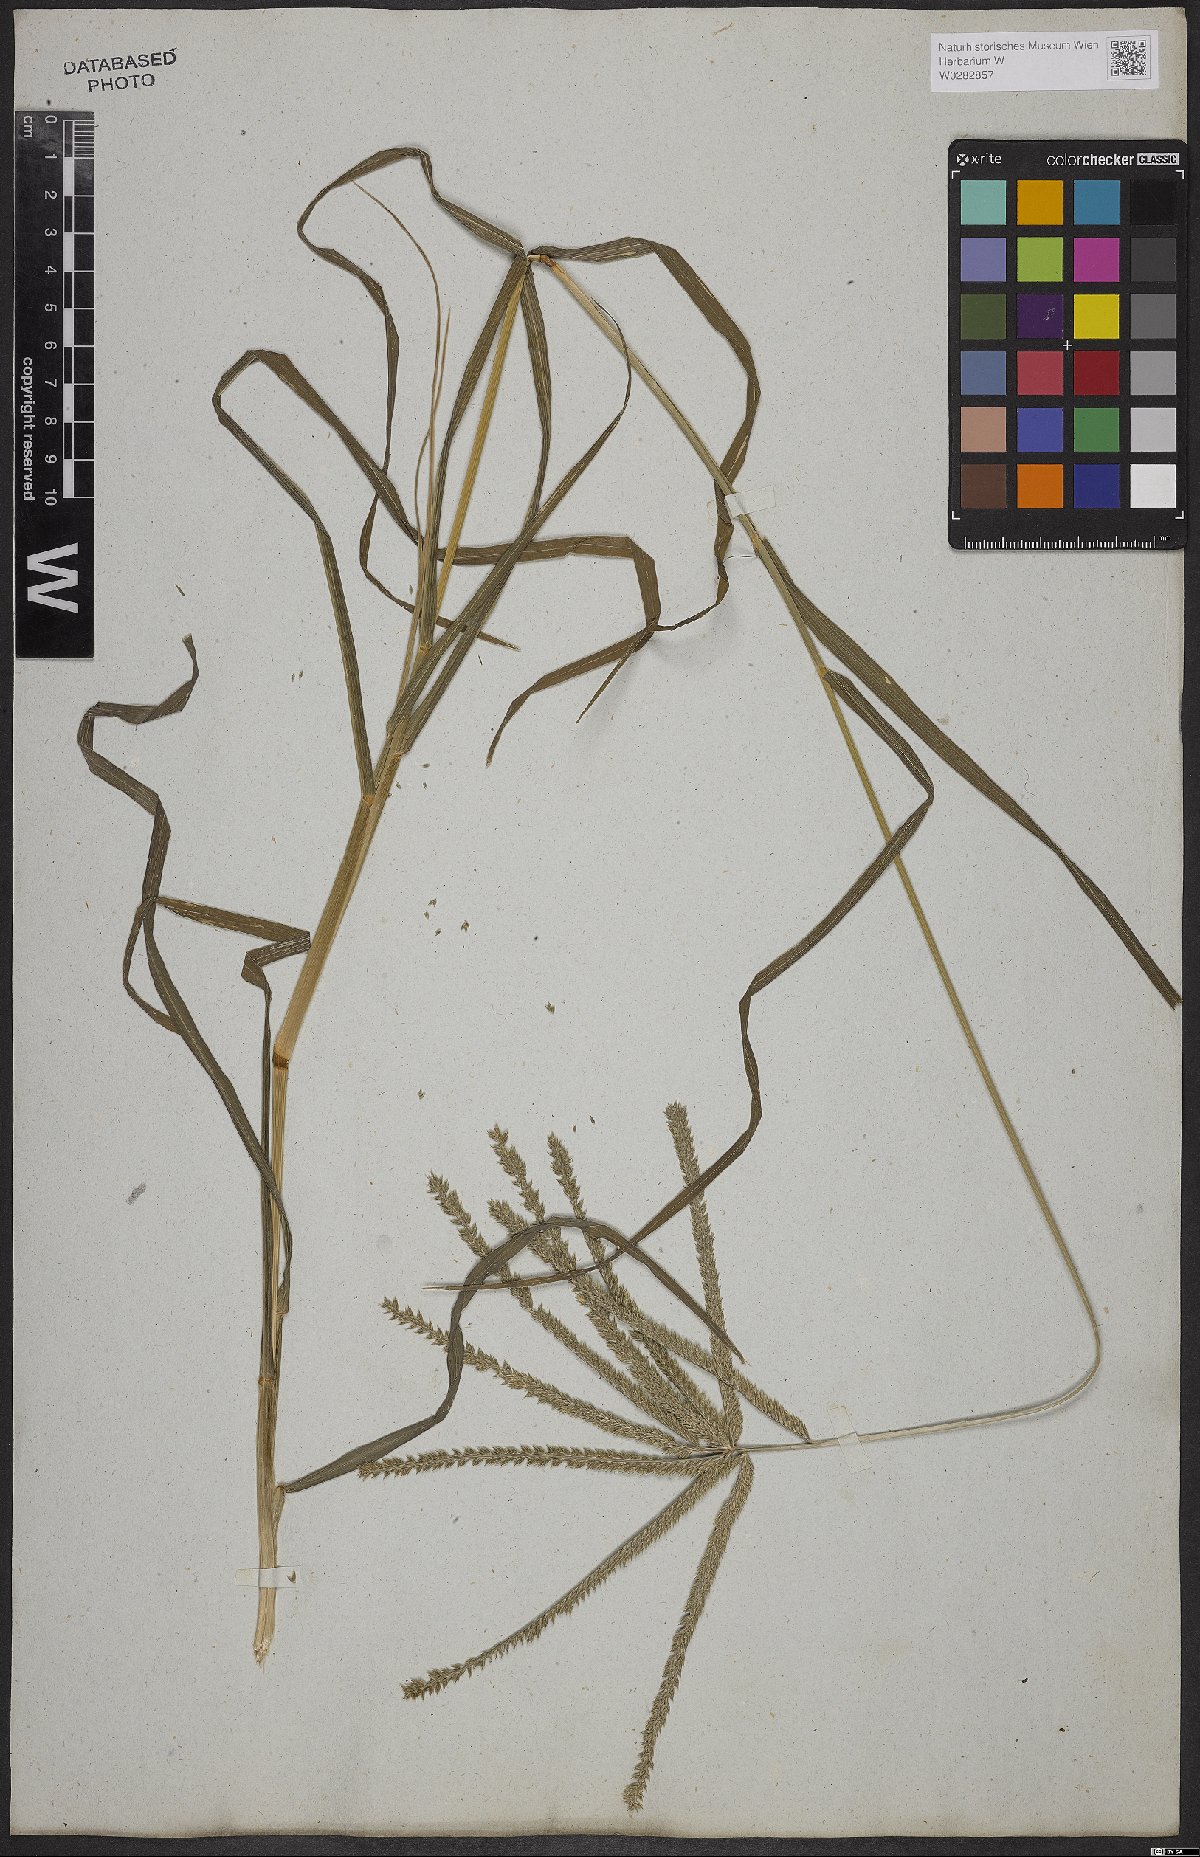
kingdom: Plantae
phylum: Tracheophyta
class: Liliopsida
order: Poales
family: Poaceae
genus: Eleusine
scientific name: Eleusine indica
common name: Yard-grass
